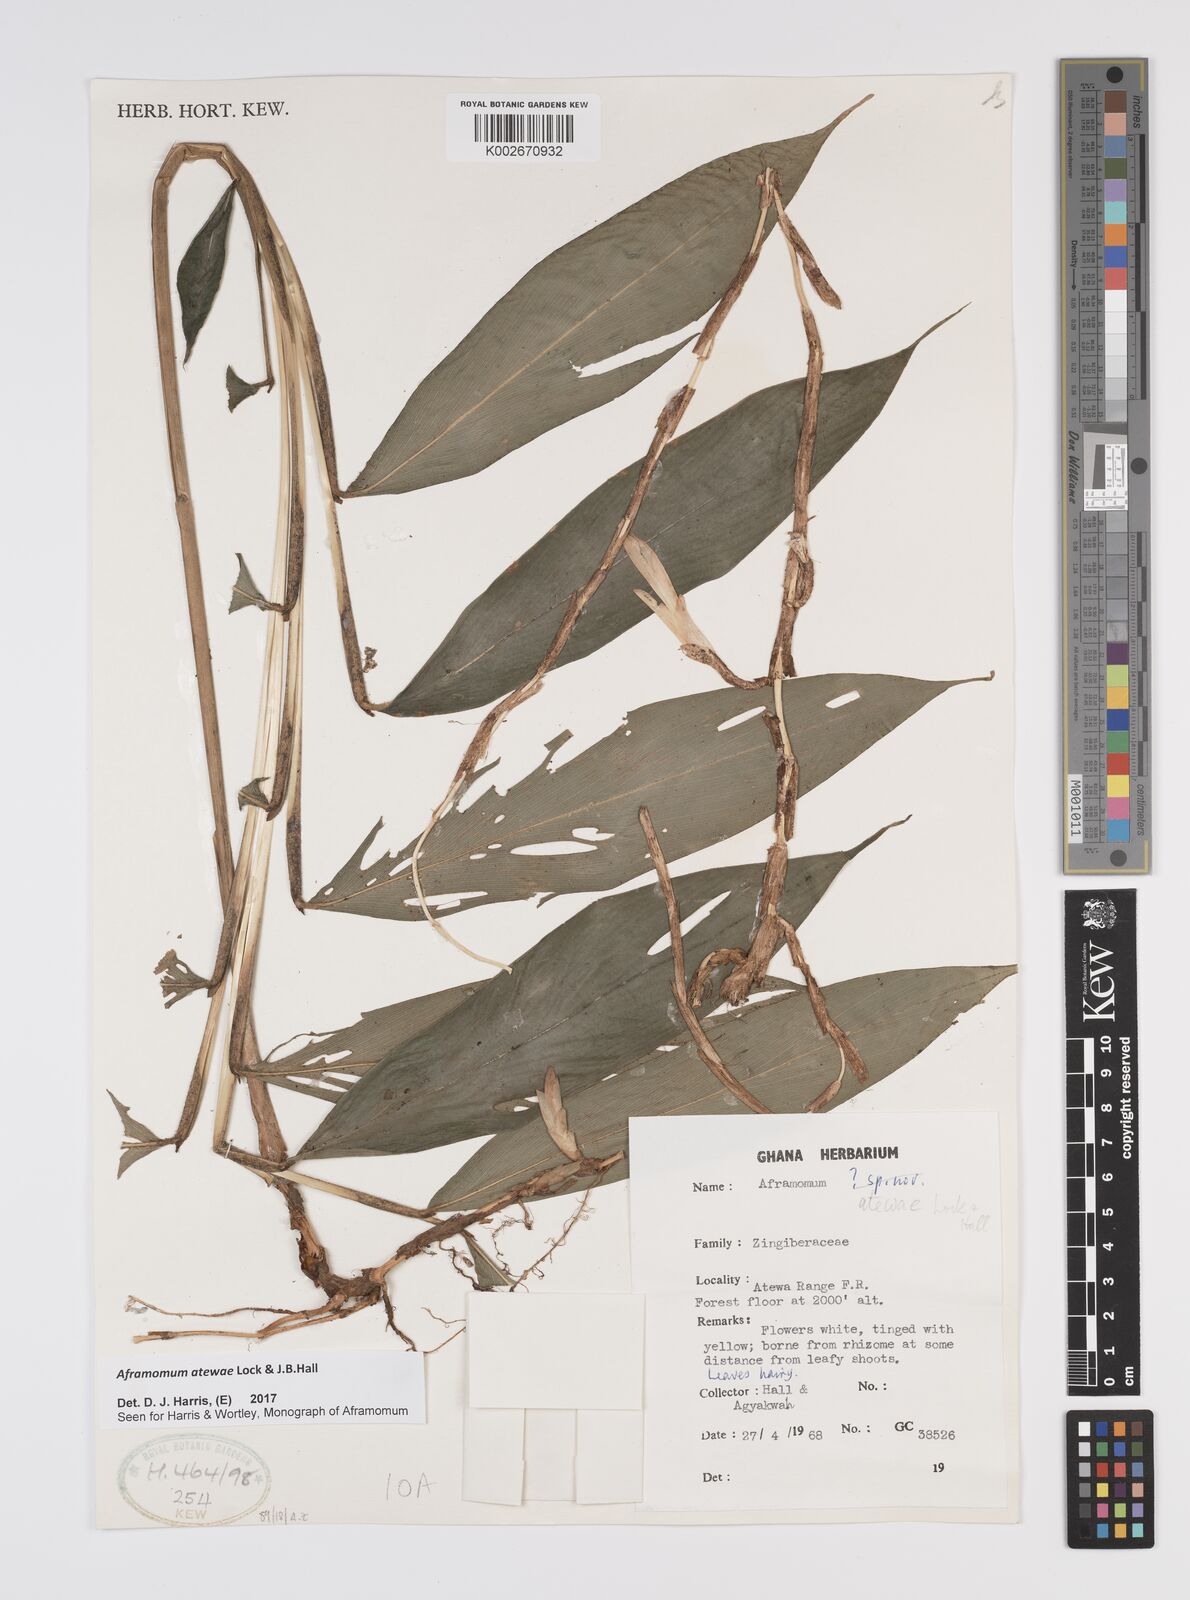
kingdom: Plantae
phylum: Tracheophyta
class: Liliopsida
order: Zingiberales
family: Zingiberaceae
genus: Aframomum
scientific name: Aframomum atewae
